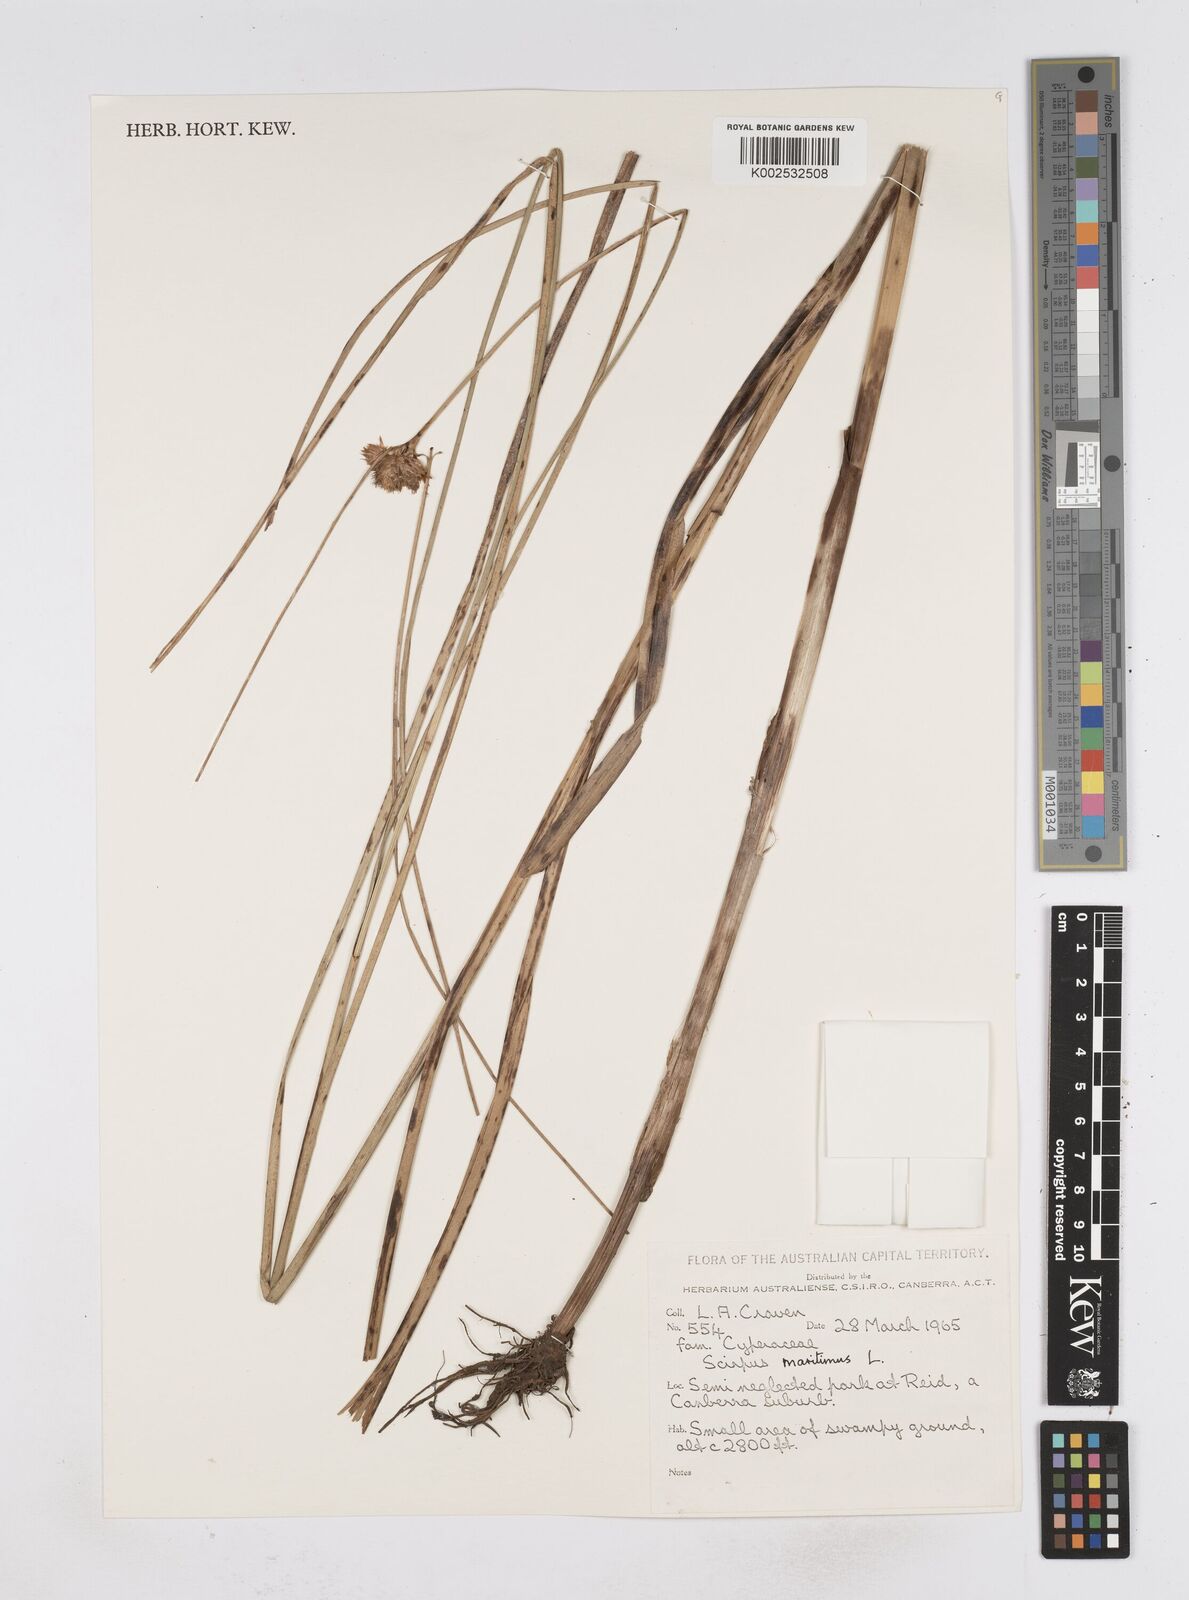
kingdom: Plantae
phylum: Tracheophyta
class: Liliopsida
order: Poales
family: Cyperaceae
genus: Bolboschoenus
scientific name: Bolboschoenus maritimus
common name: Sea club-rush
